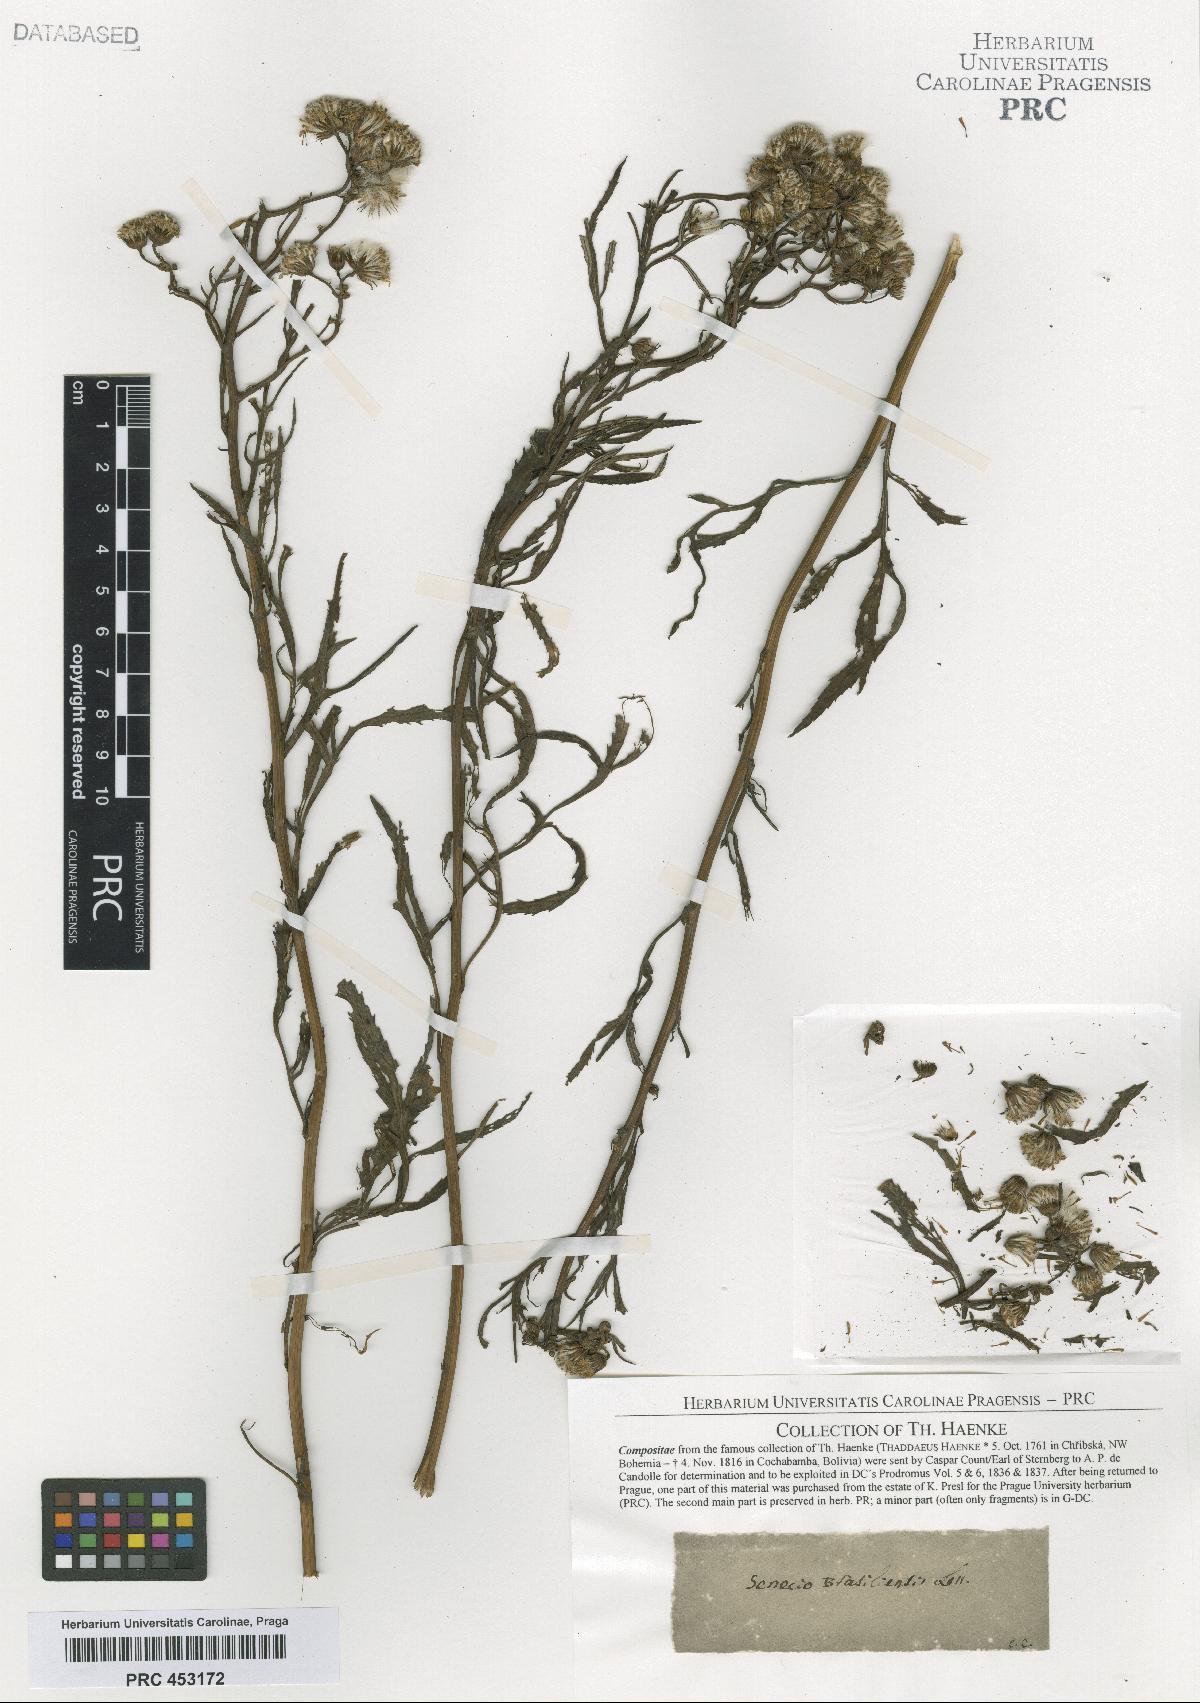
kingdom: Plantae
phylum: Tracheophyta
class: Magnoliopsida
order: Asterales
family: Asteraceae
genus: Senecio
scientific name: Senecio
